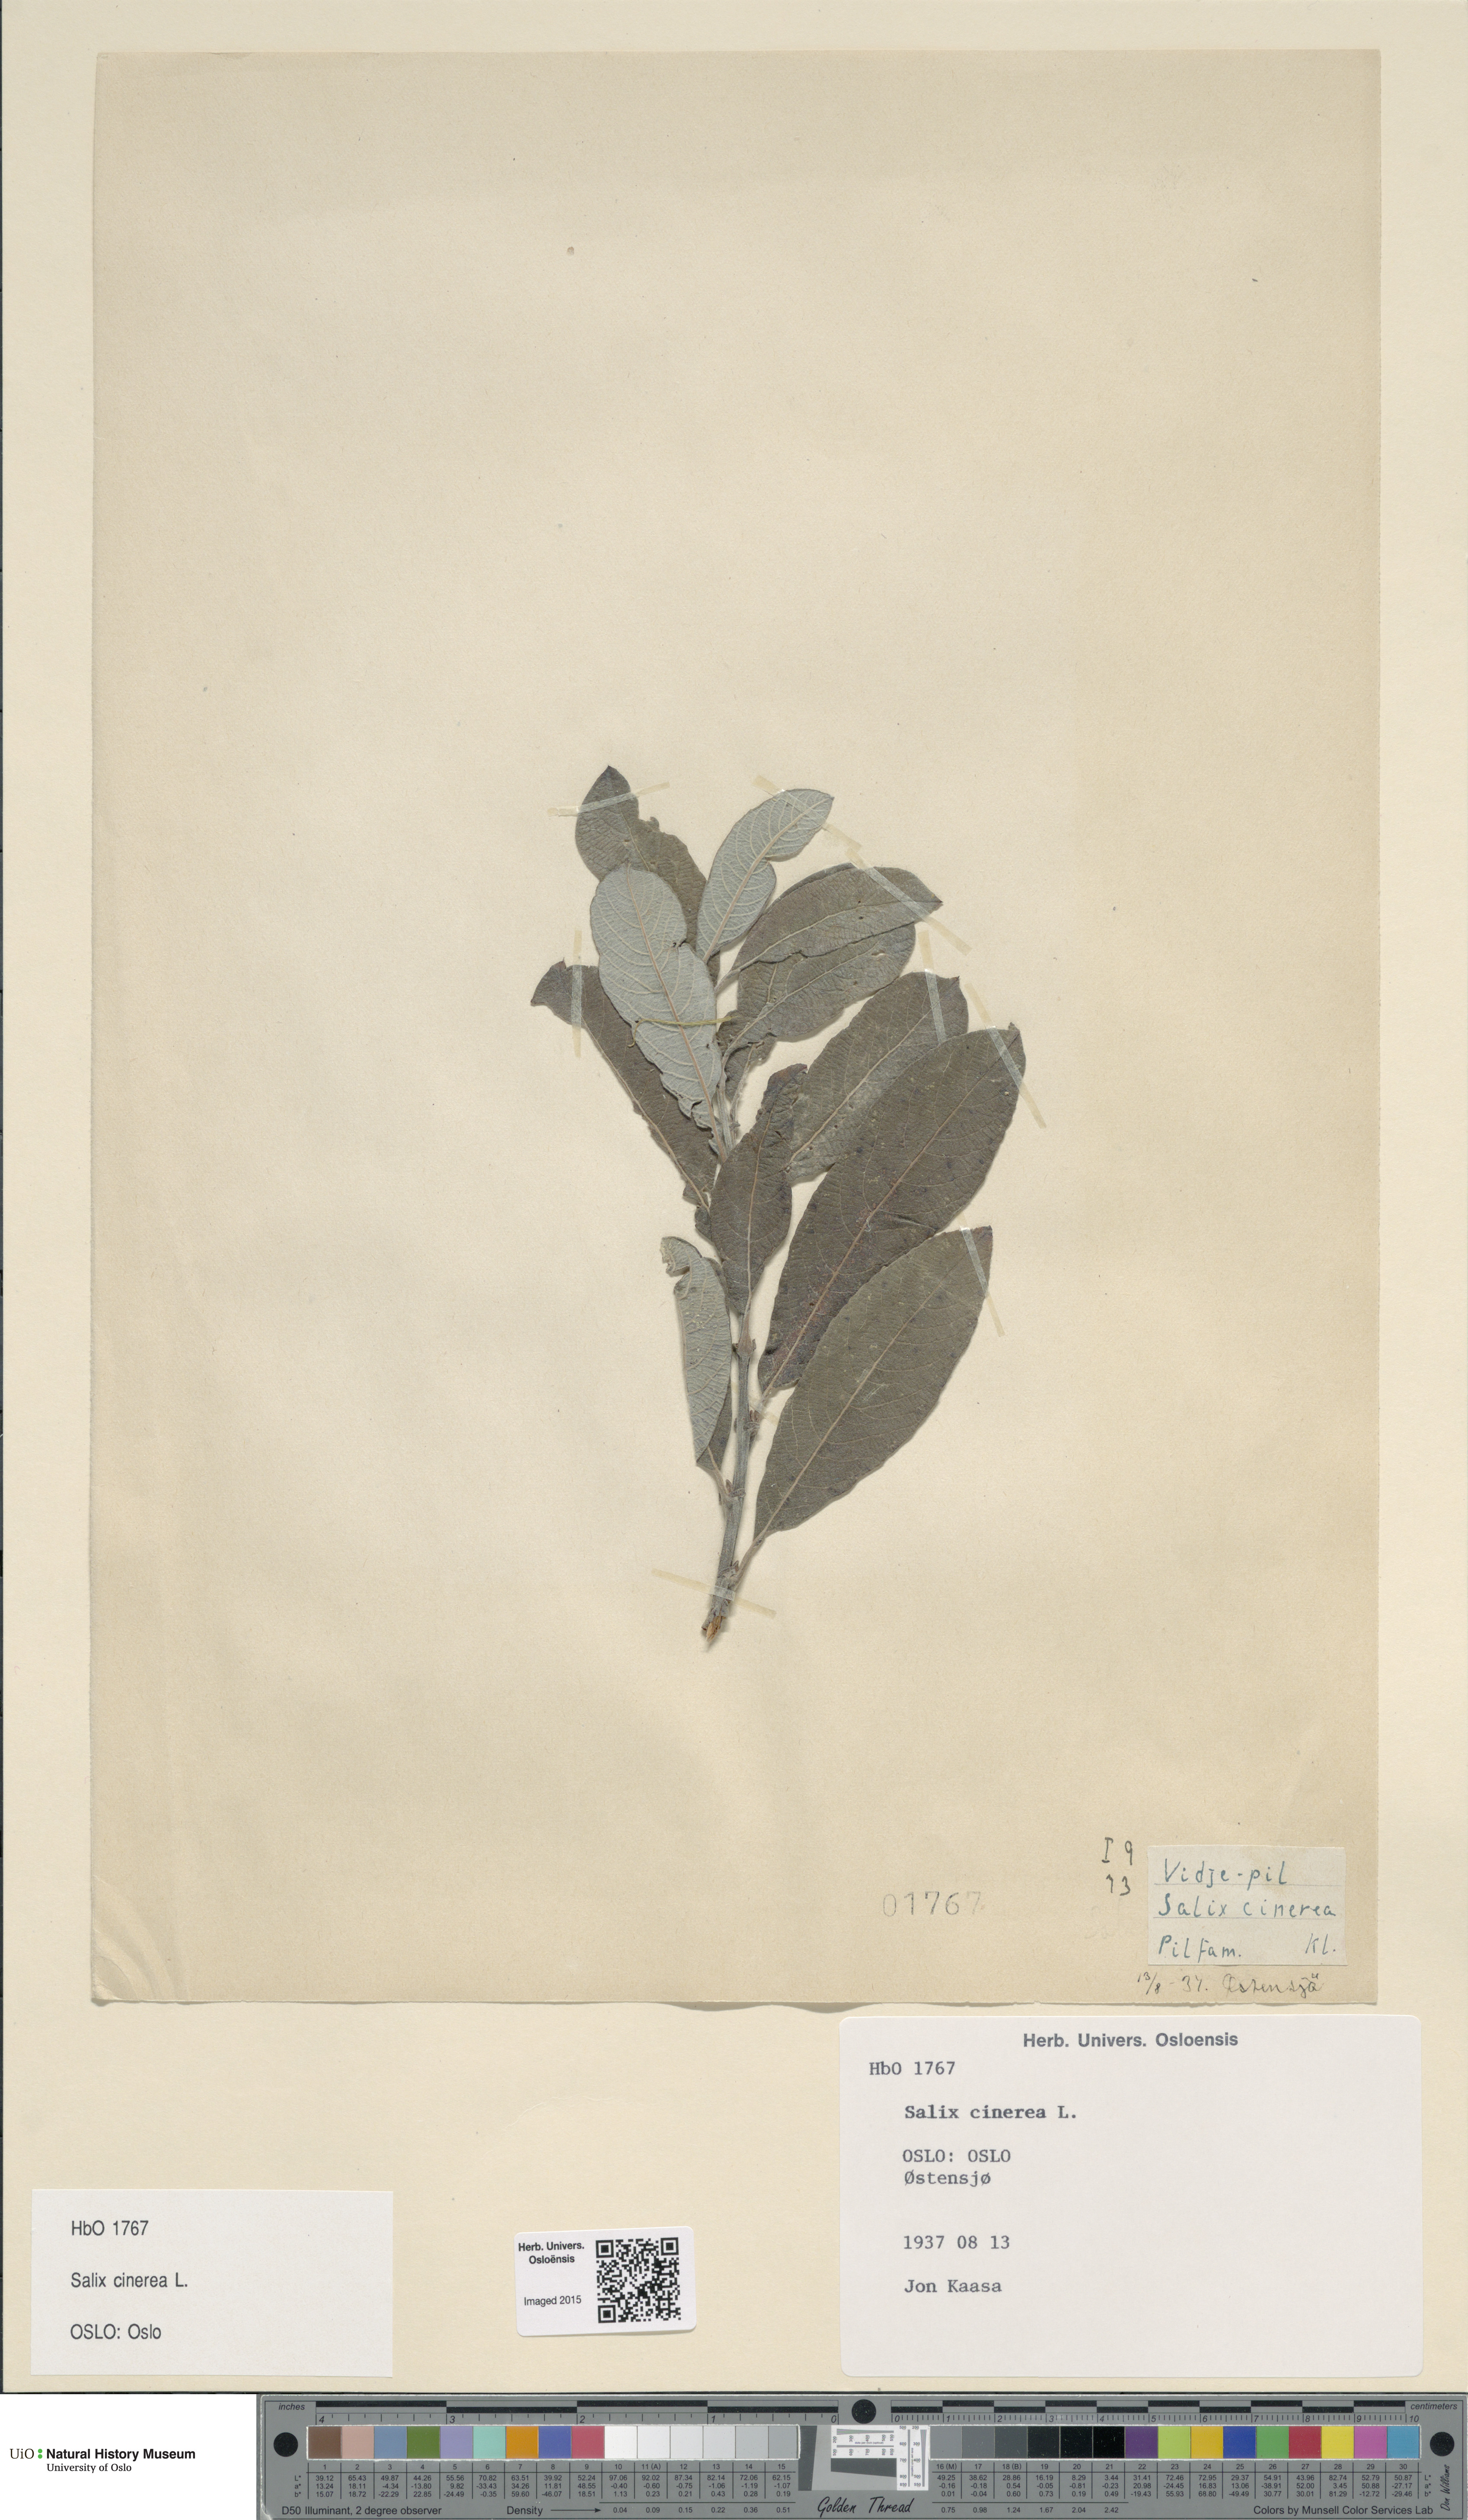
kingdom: Plantae
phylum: Tracheophyta
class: Magnoliopsida
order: Malpighiales
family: Salicaceae
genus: Salix
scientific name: Salix cinerea
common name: Common sallow
